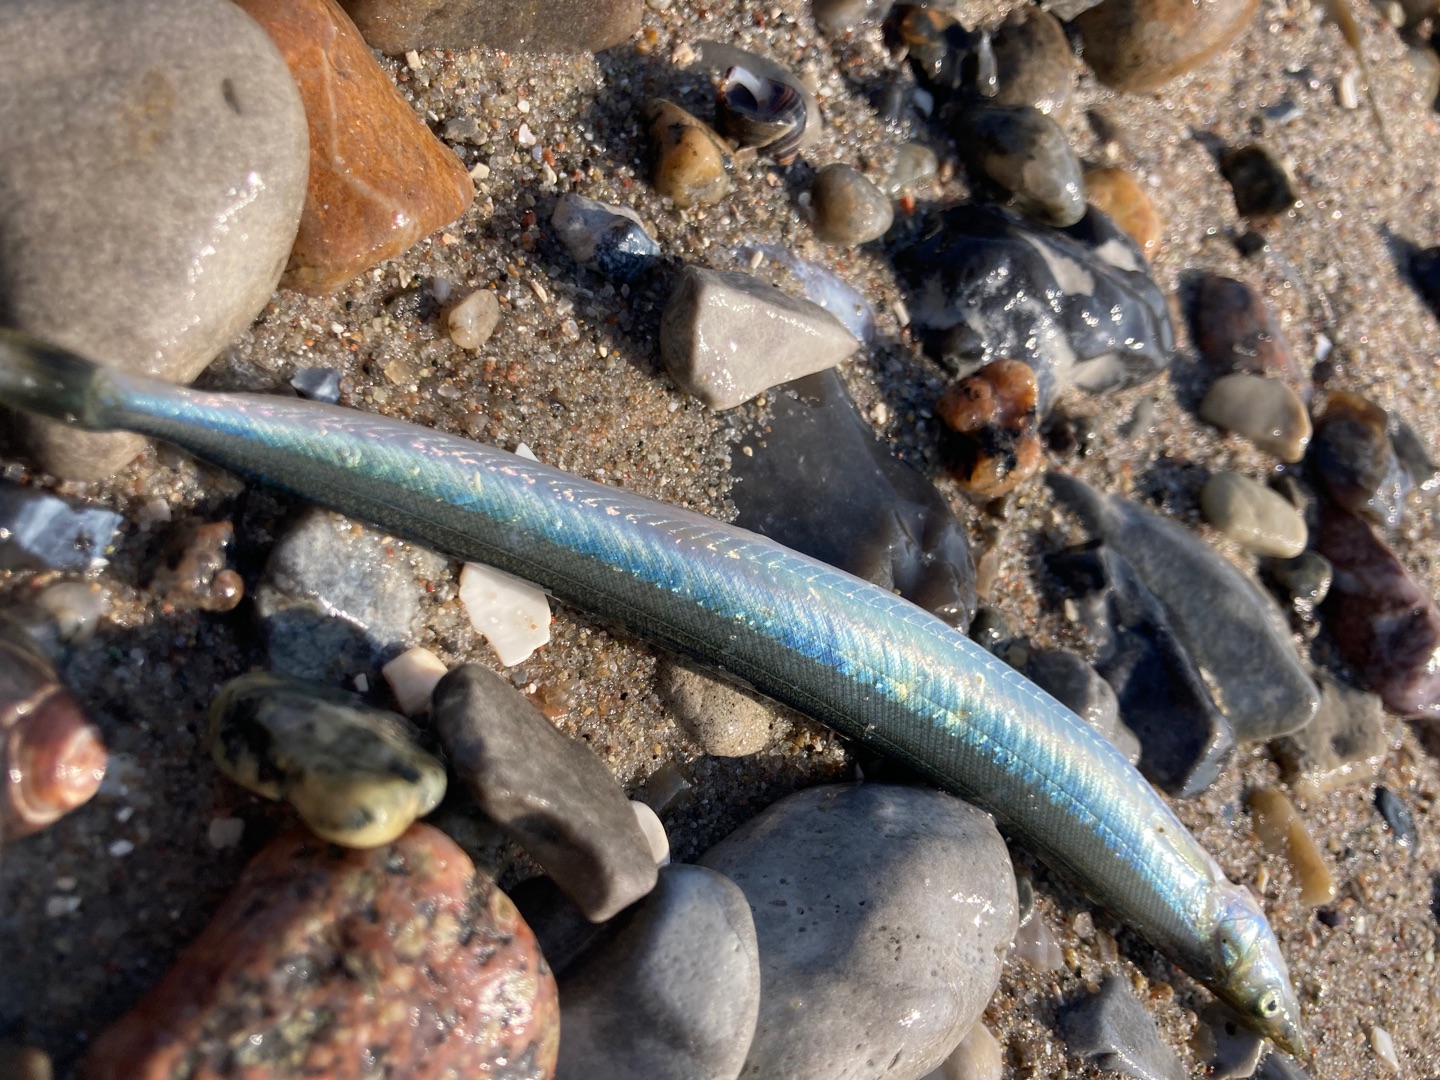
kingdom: Animalia
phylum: Chordata
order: Perciformes
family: Ammodytidae
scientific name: Ammodytidae
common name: Tobisfamilien
